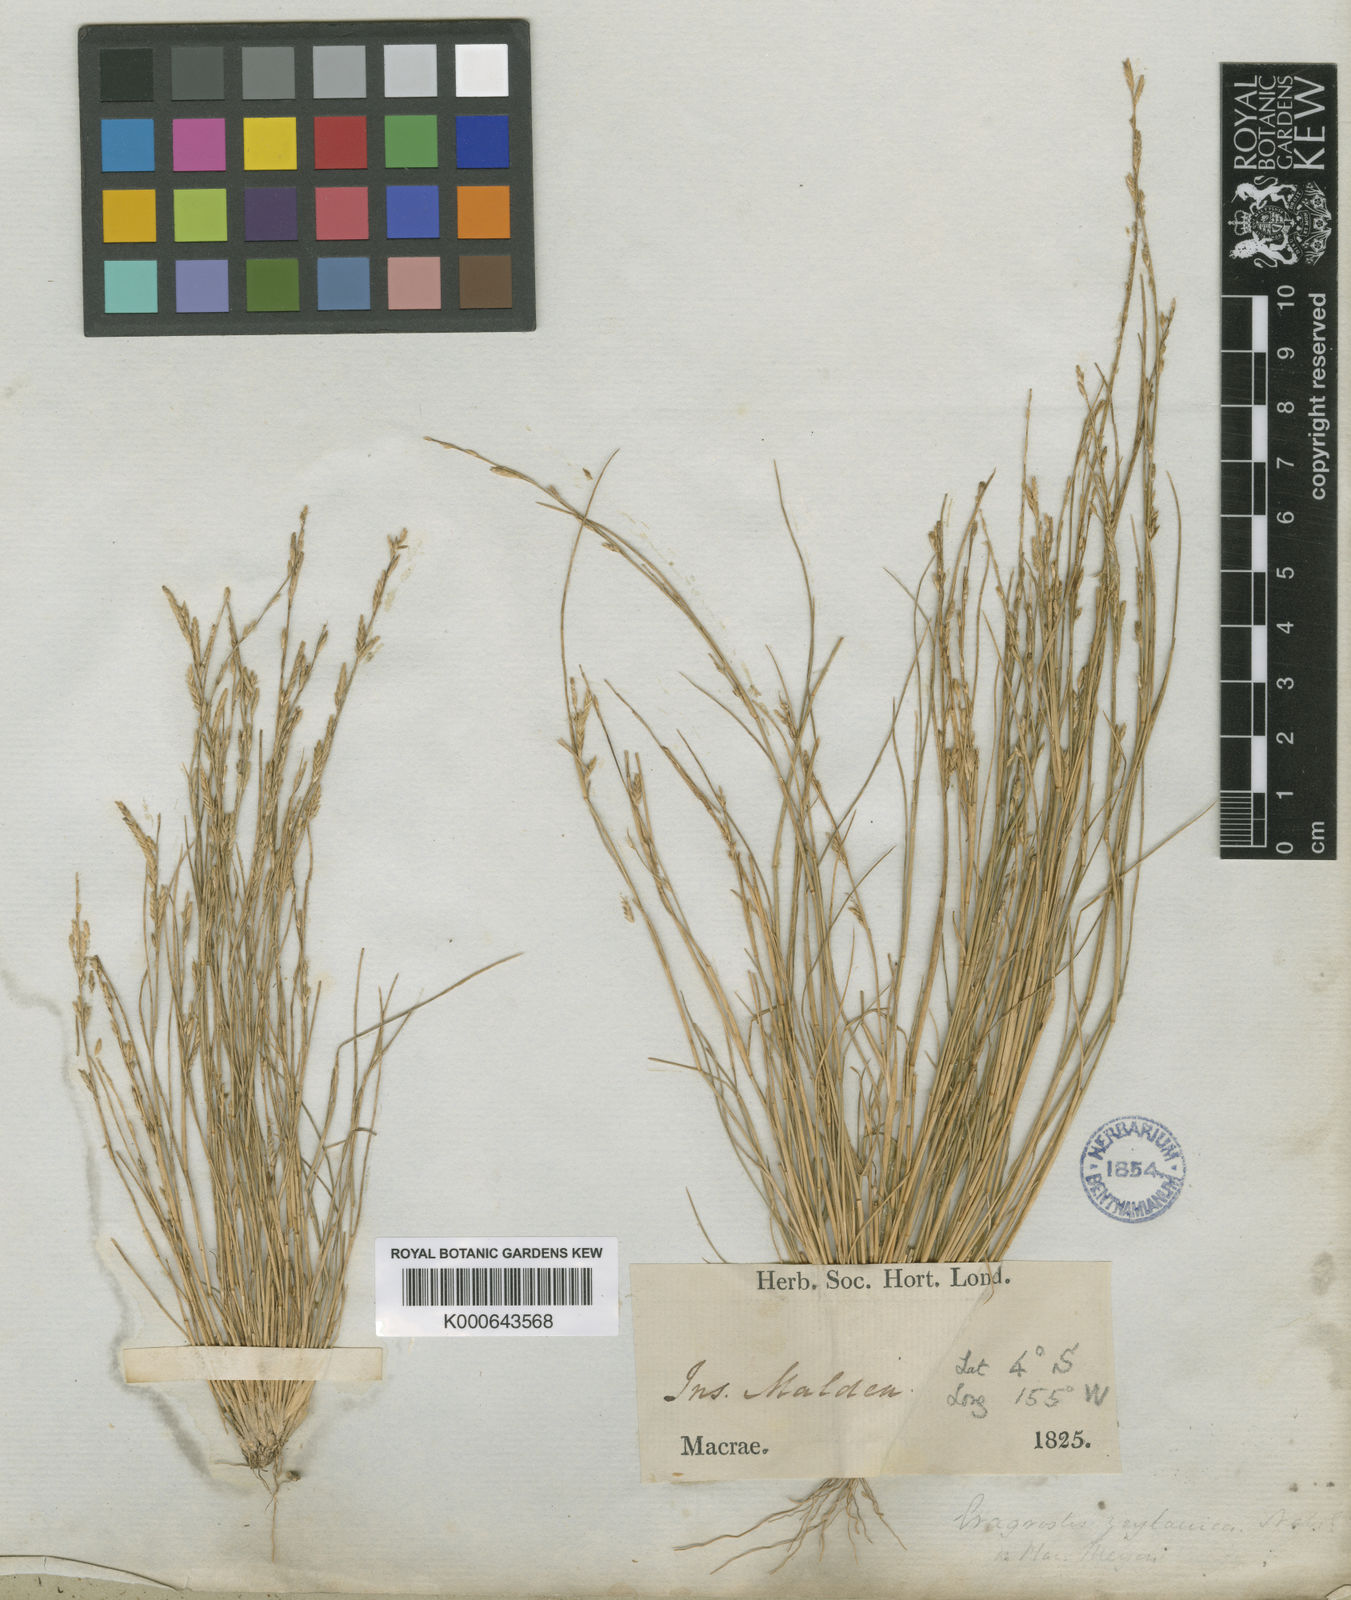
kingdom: Plantae
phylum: Tracheophyta
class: Liliopsida
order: Poales
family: Poaceae
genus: Eragrostis
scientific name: Eragrostis brownii
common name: Lovegrass
